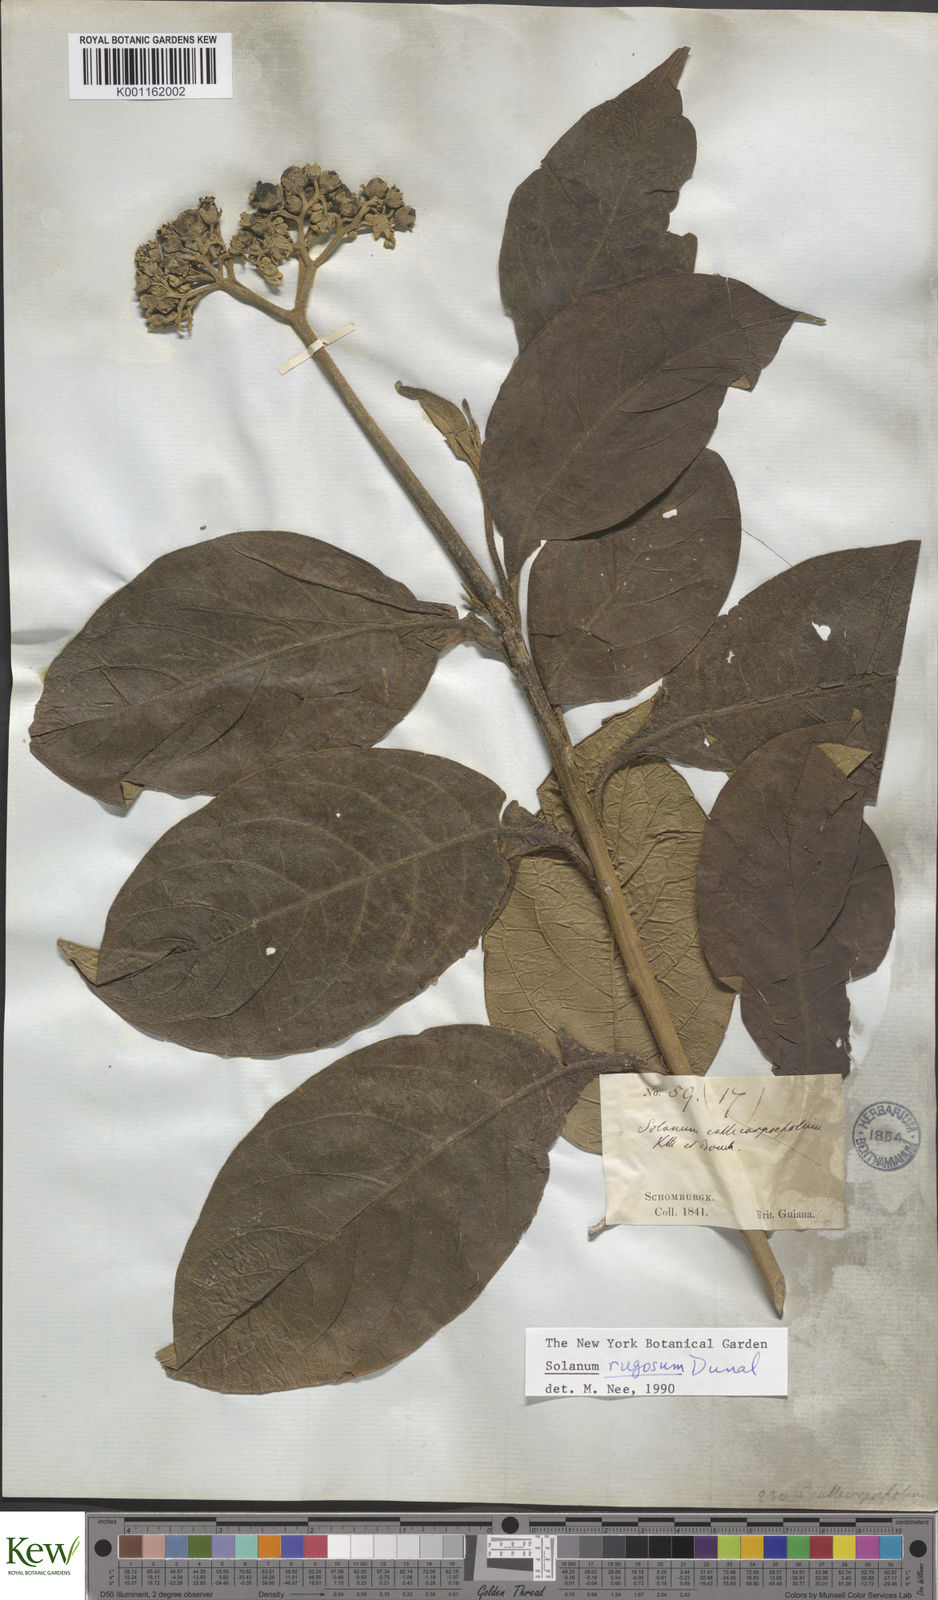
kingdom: Plantae
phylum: Tracheophyta
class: Magnoliopsida
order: Solanales
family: Solanaceae
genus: Solanum
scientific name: Solanum rugosum
